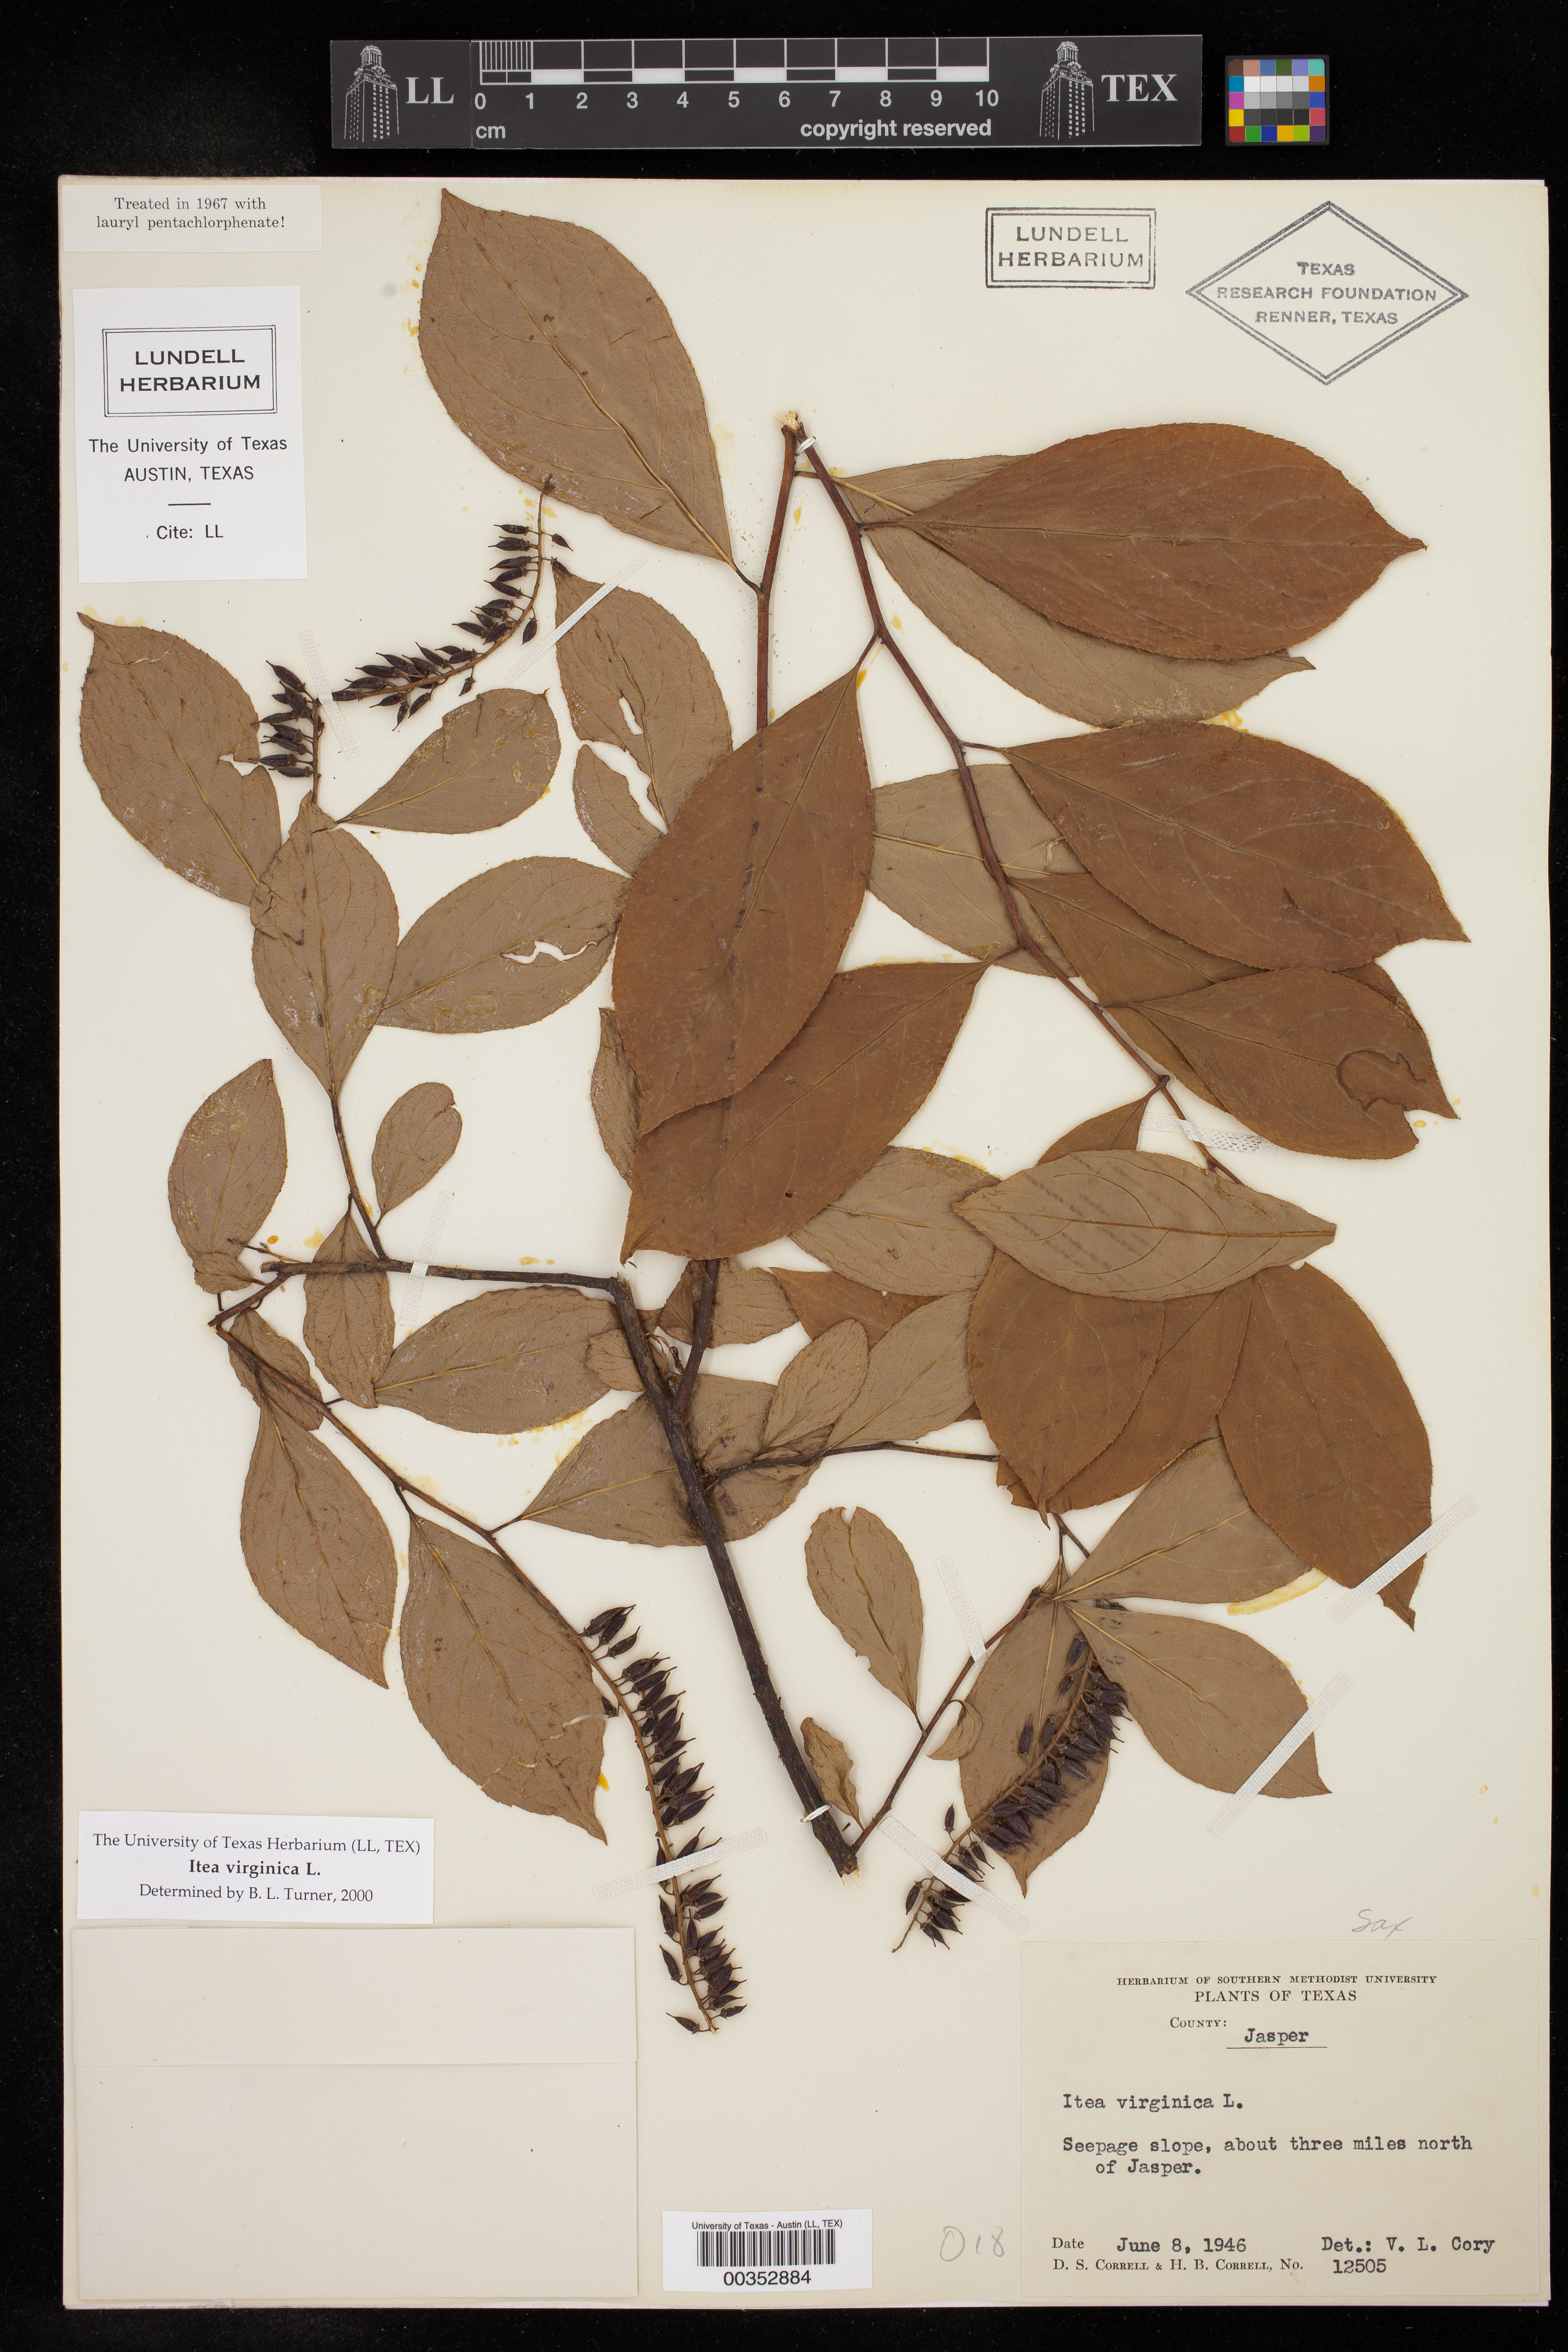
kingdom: Plantae
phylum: Tracheophyta
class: Magnoliopsida
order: Saxifragales
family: Iteaceae
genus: Itea
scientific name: Itea virginica
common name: Sweetspire
